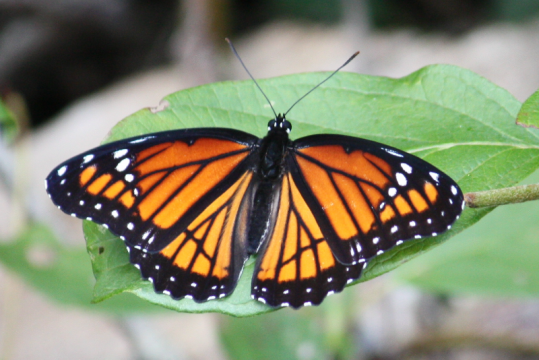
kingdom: Animalia
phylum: Arthropoda
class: Insecta
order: Lepidoptera
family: Nymphalidae
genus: Limenitis
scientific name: Limenitis archippus
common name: Viceroy
